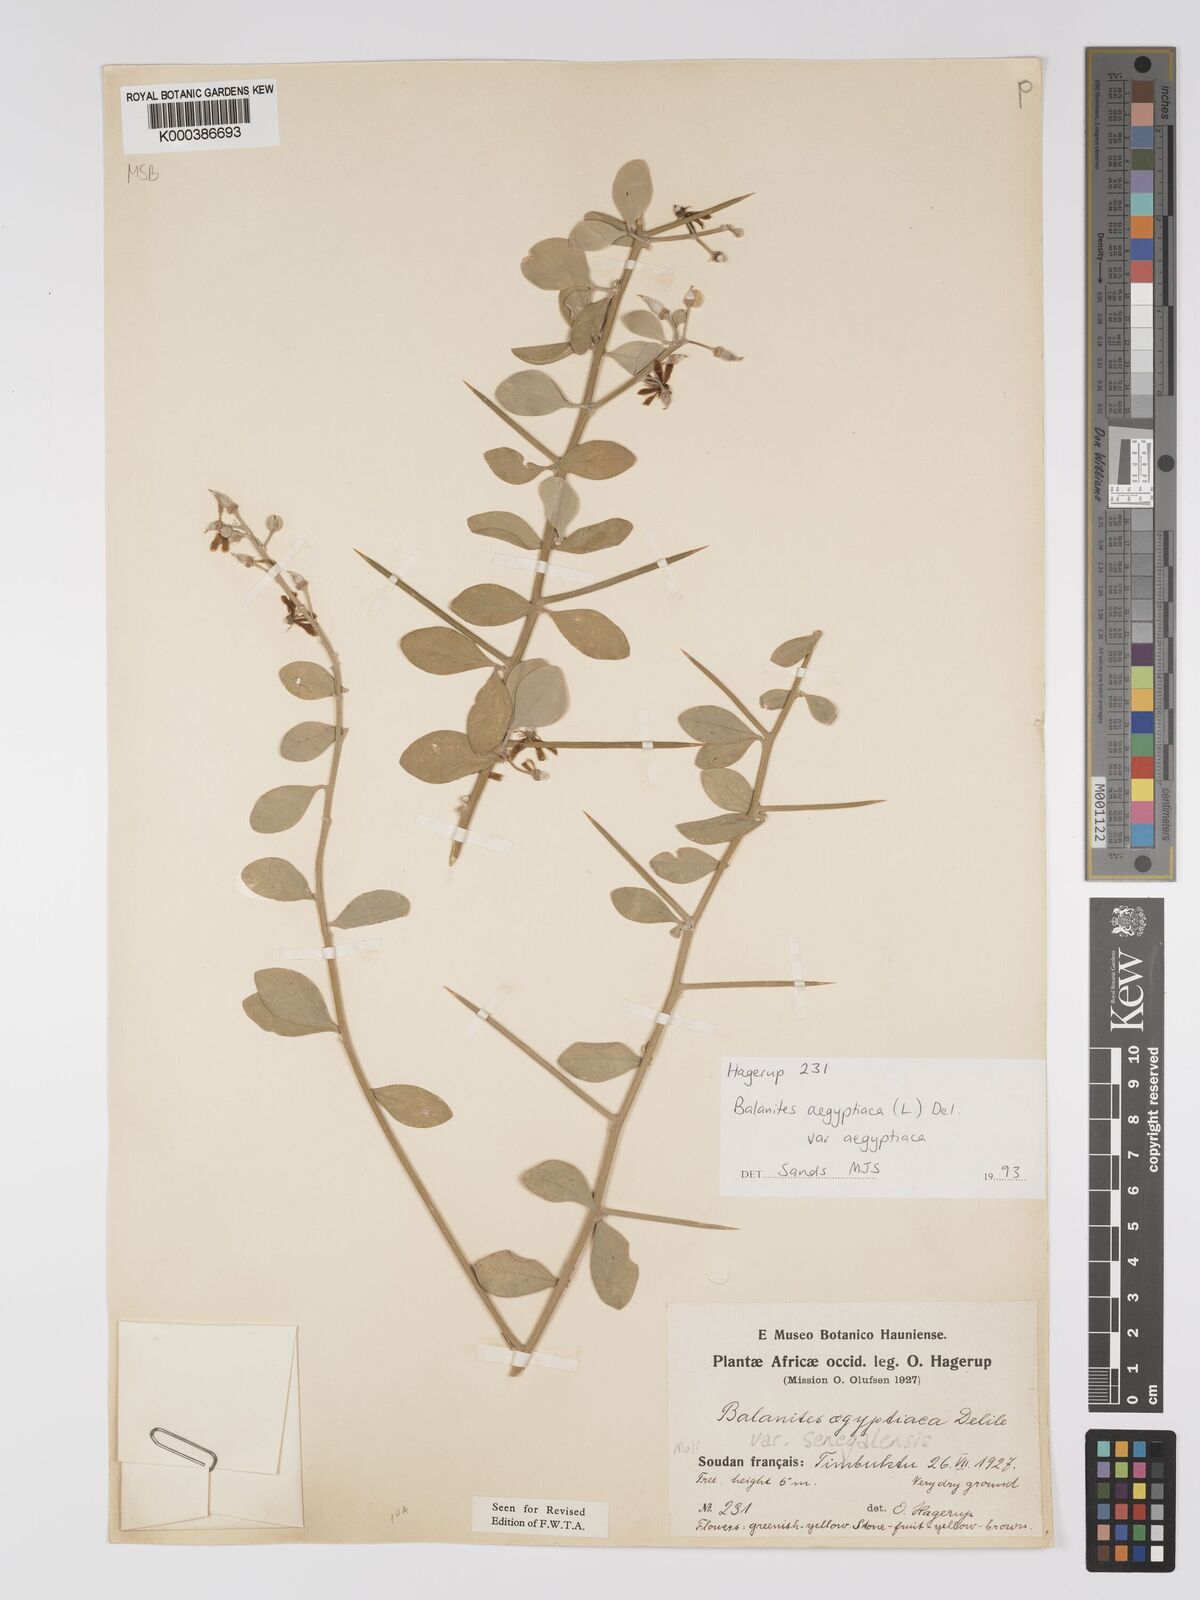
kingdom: Plantae
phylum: Tracheophyta
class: Magnoliopsida
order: Zygophyllales
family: Zygophyllaceae
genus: Balanites
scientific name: Balanites aegyptiaca
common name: Balanites
